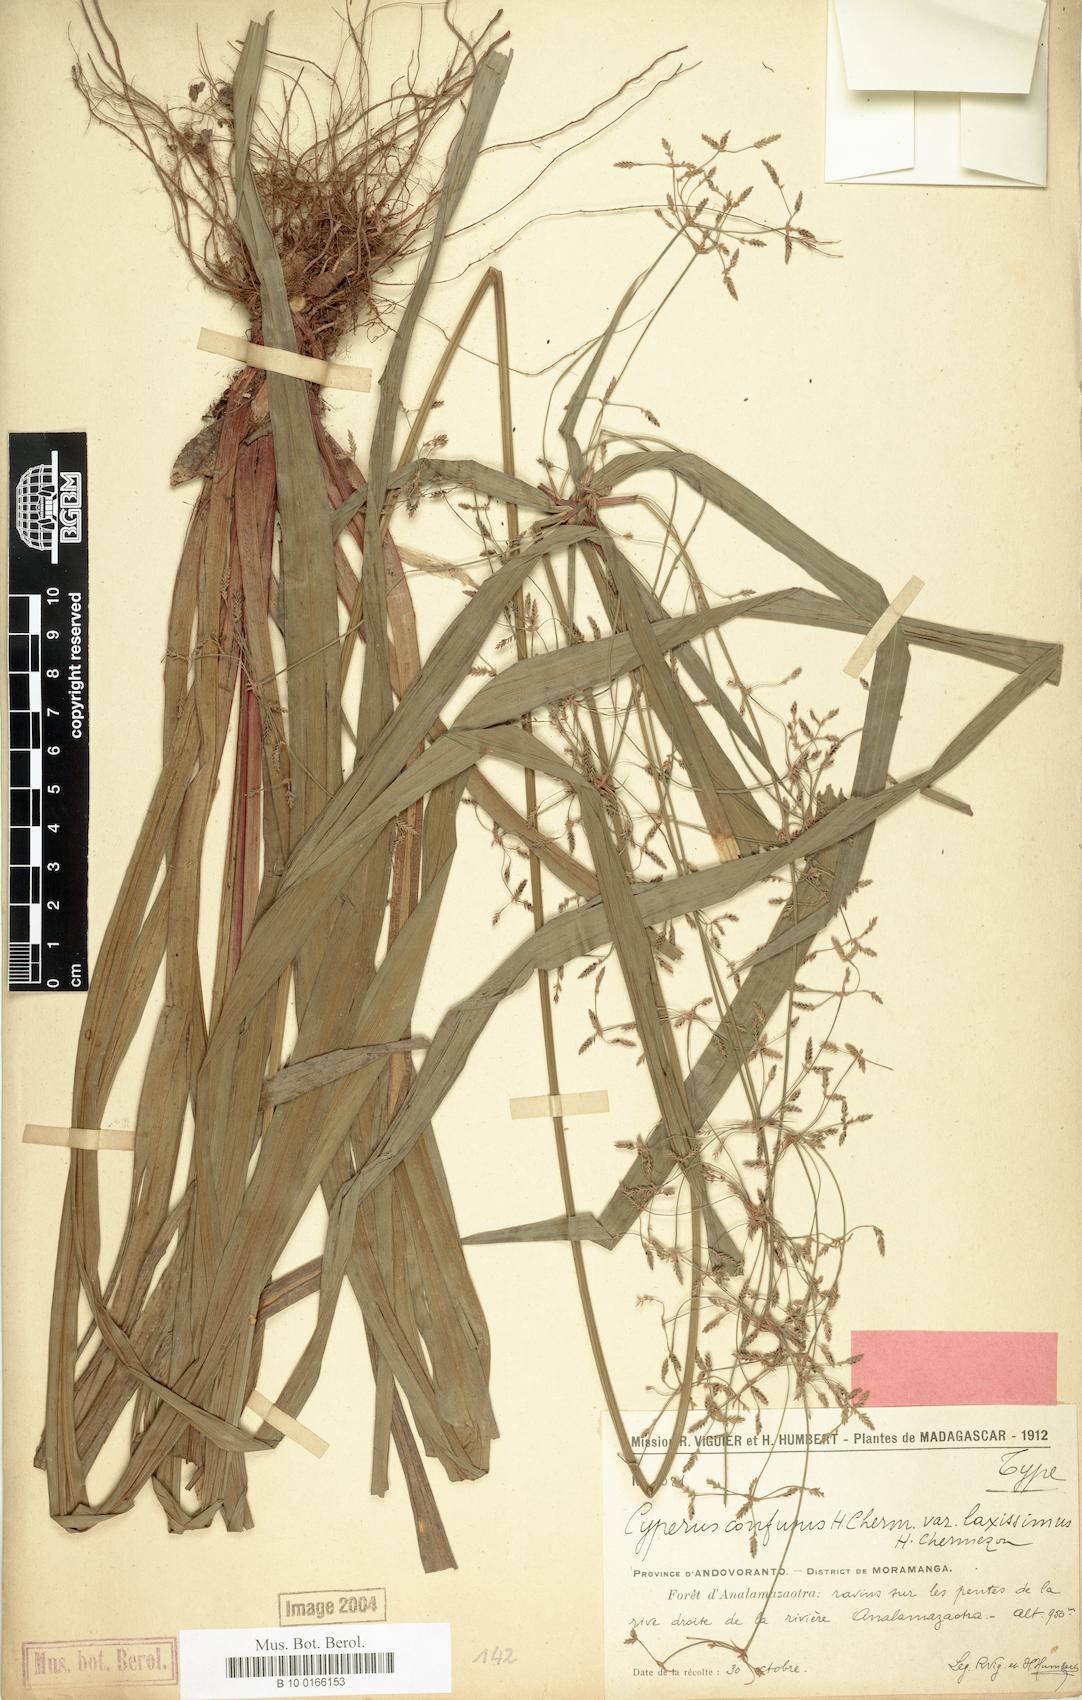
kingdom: Plantae
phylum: Tracheophyta
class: Liliopsida
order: Poales
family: Cyperaceae
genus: Cyperus
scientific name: Cyperus longifolius
